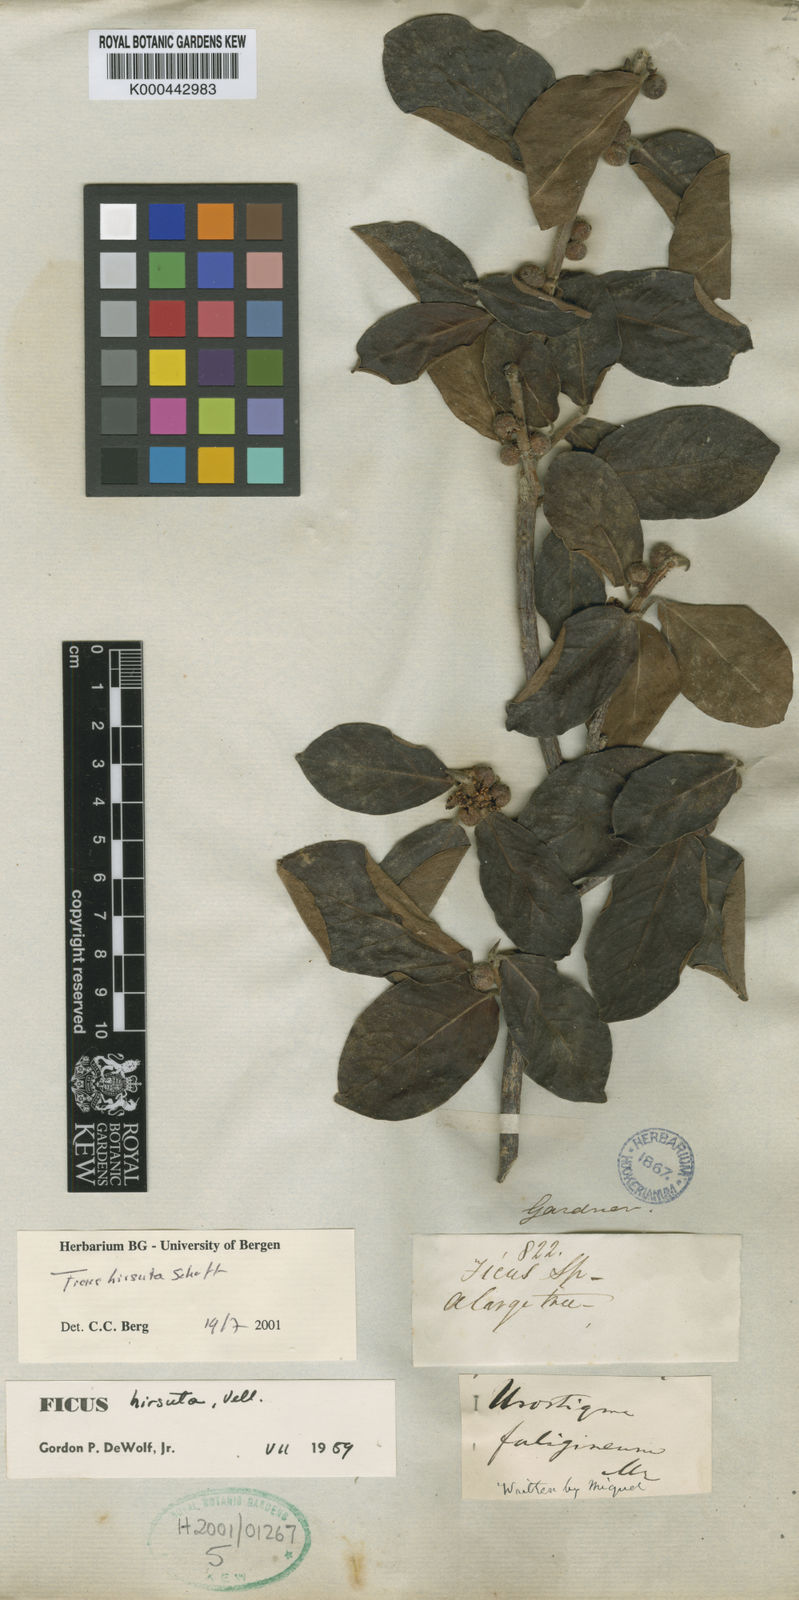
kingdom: Plantae
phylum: Tracheophyta
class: Magnoliopsida
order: Rosales
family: Moraceae
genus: Ficus
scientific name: Ficus hirsuta
